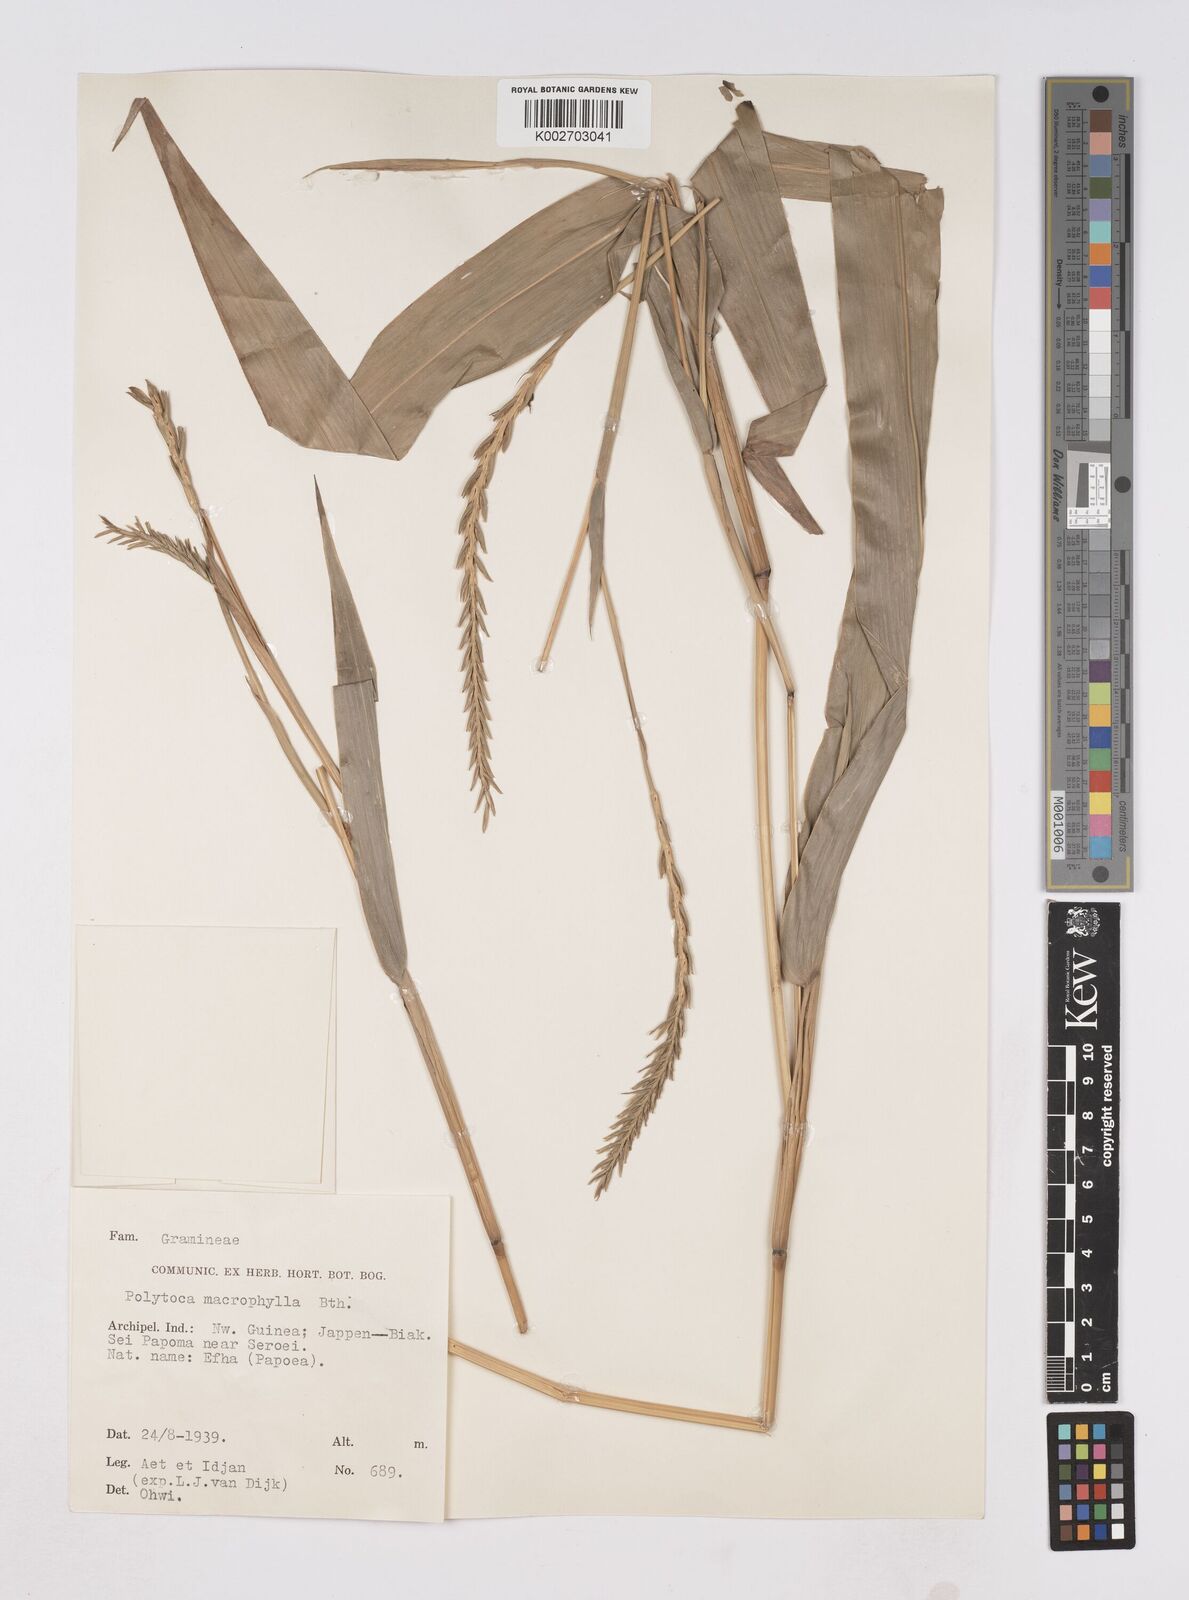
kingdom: Plantae
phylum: Tracheophyta
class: Liliopsida
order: Poales
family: Poaceae
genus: Polytoca
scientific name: Polytoca macrophylla
